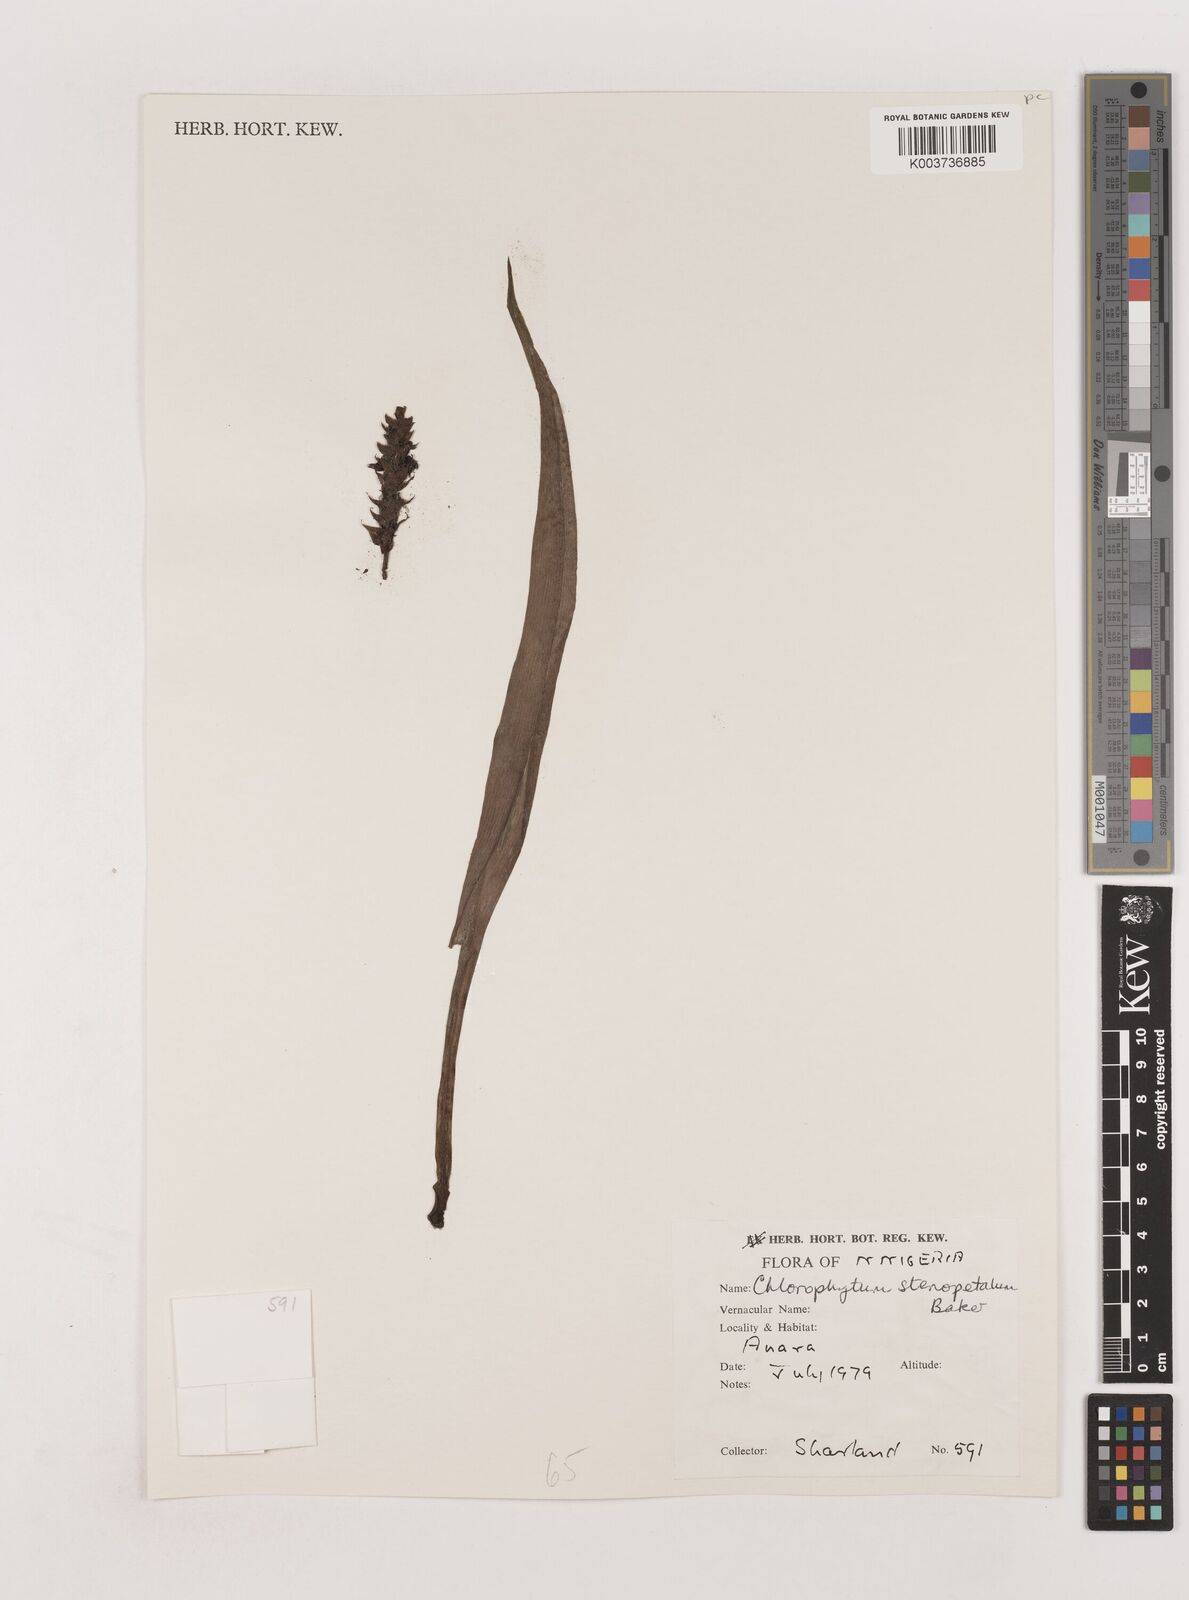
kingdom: Plantae
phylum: Tracheophyta
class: Liliopsida
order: Asparagales
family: Asparagaceae
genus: Chlorophytum
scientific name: Chlorophytum stenopetalum
